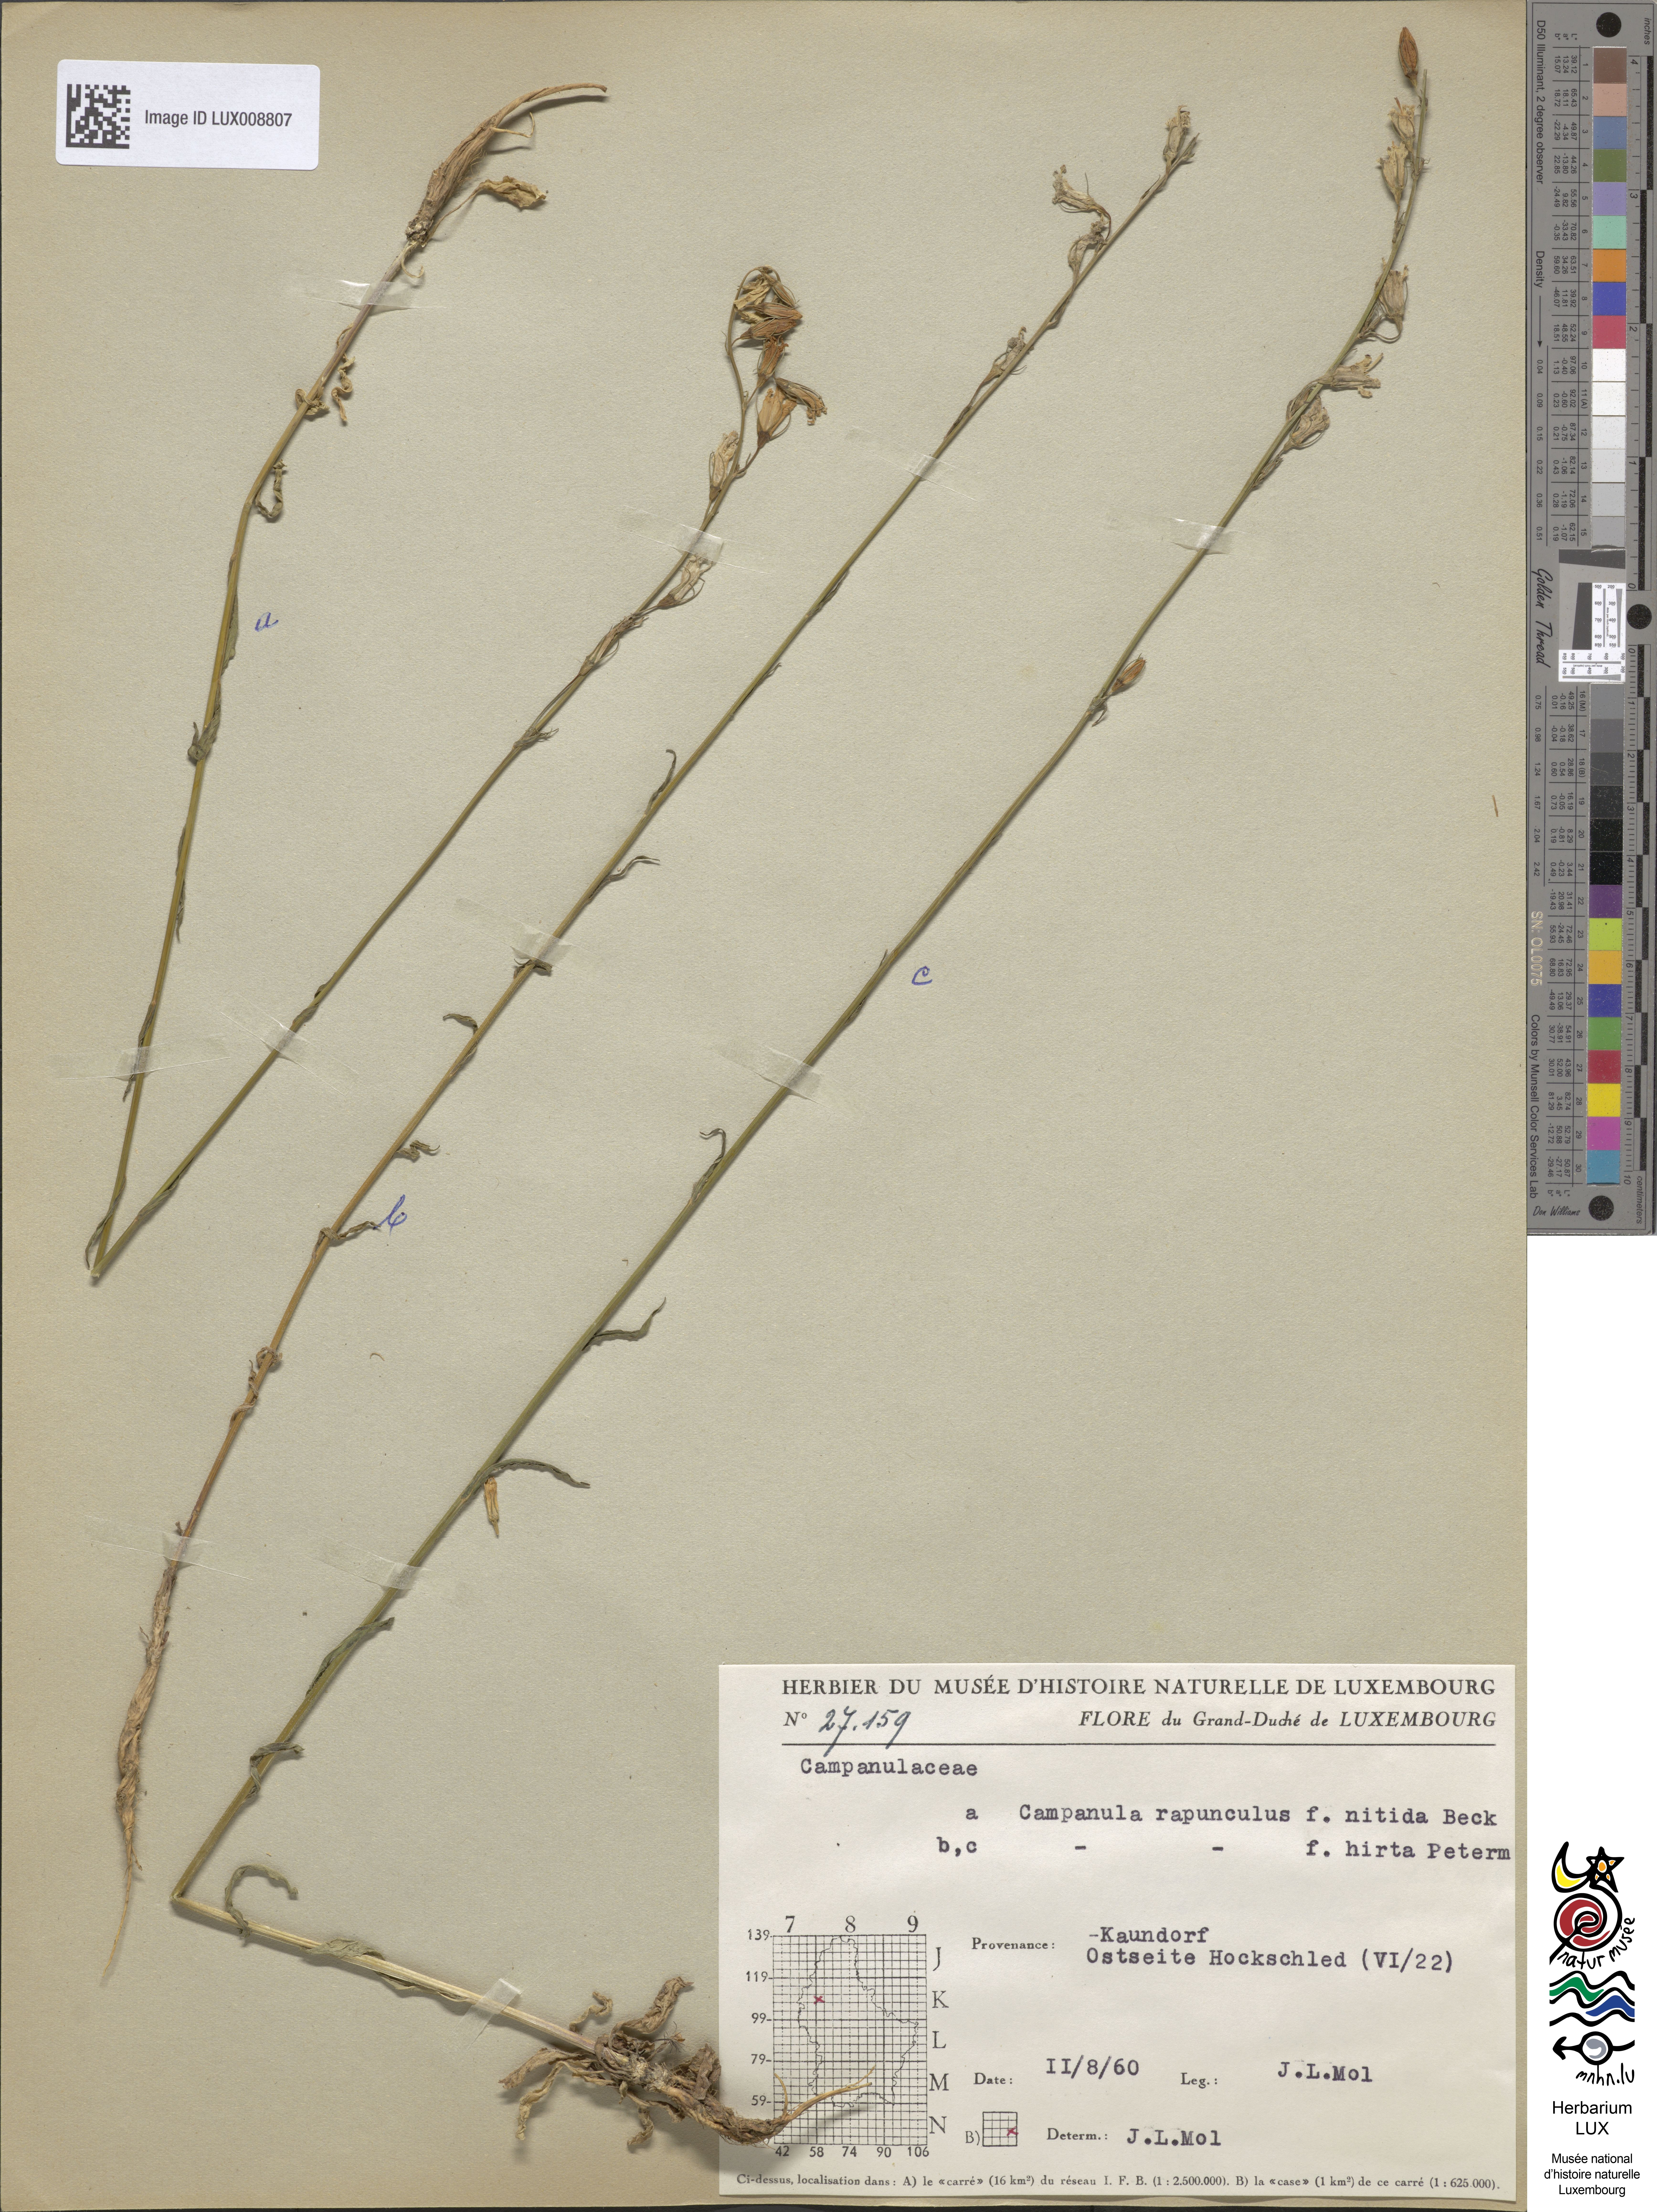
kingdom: Plantae
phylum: Tracheophyta
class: Magnoliopsida
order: Asterales
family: Campanulaceae
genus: Campanula
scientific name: Campanula rapunculus
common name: Rampion bellflower
